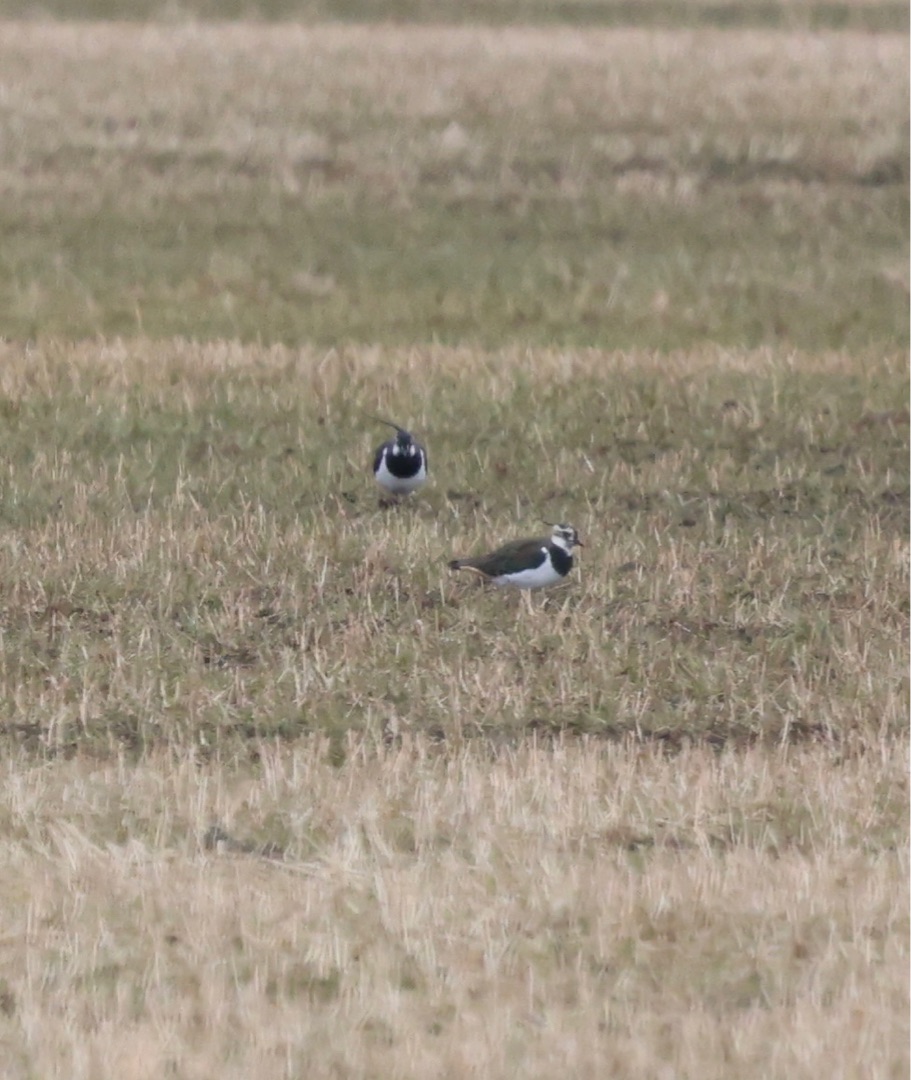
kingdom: Animalia
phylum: Chordata
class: Aves
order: Charadriiformes
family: Charadriidae
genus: Vanellus
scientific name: Vanellus vanellus
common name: Vibe
